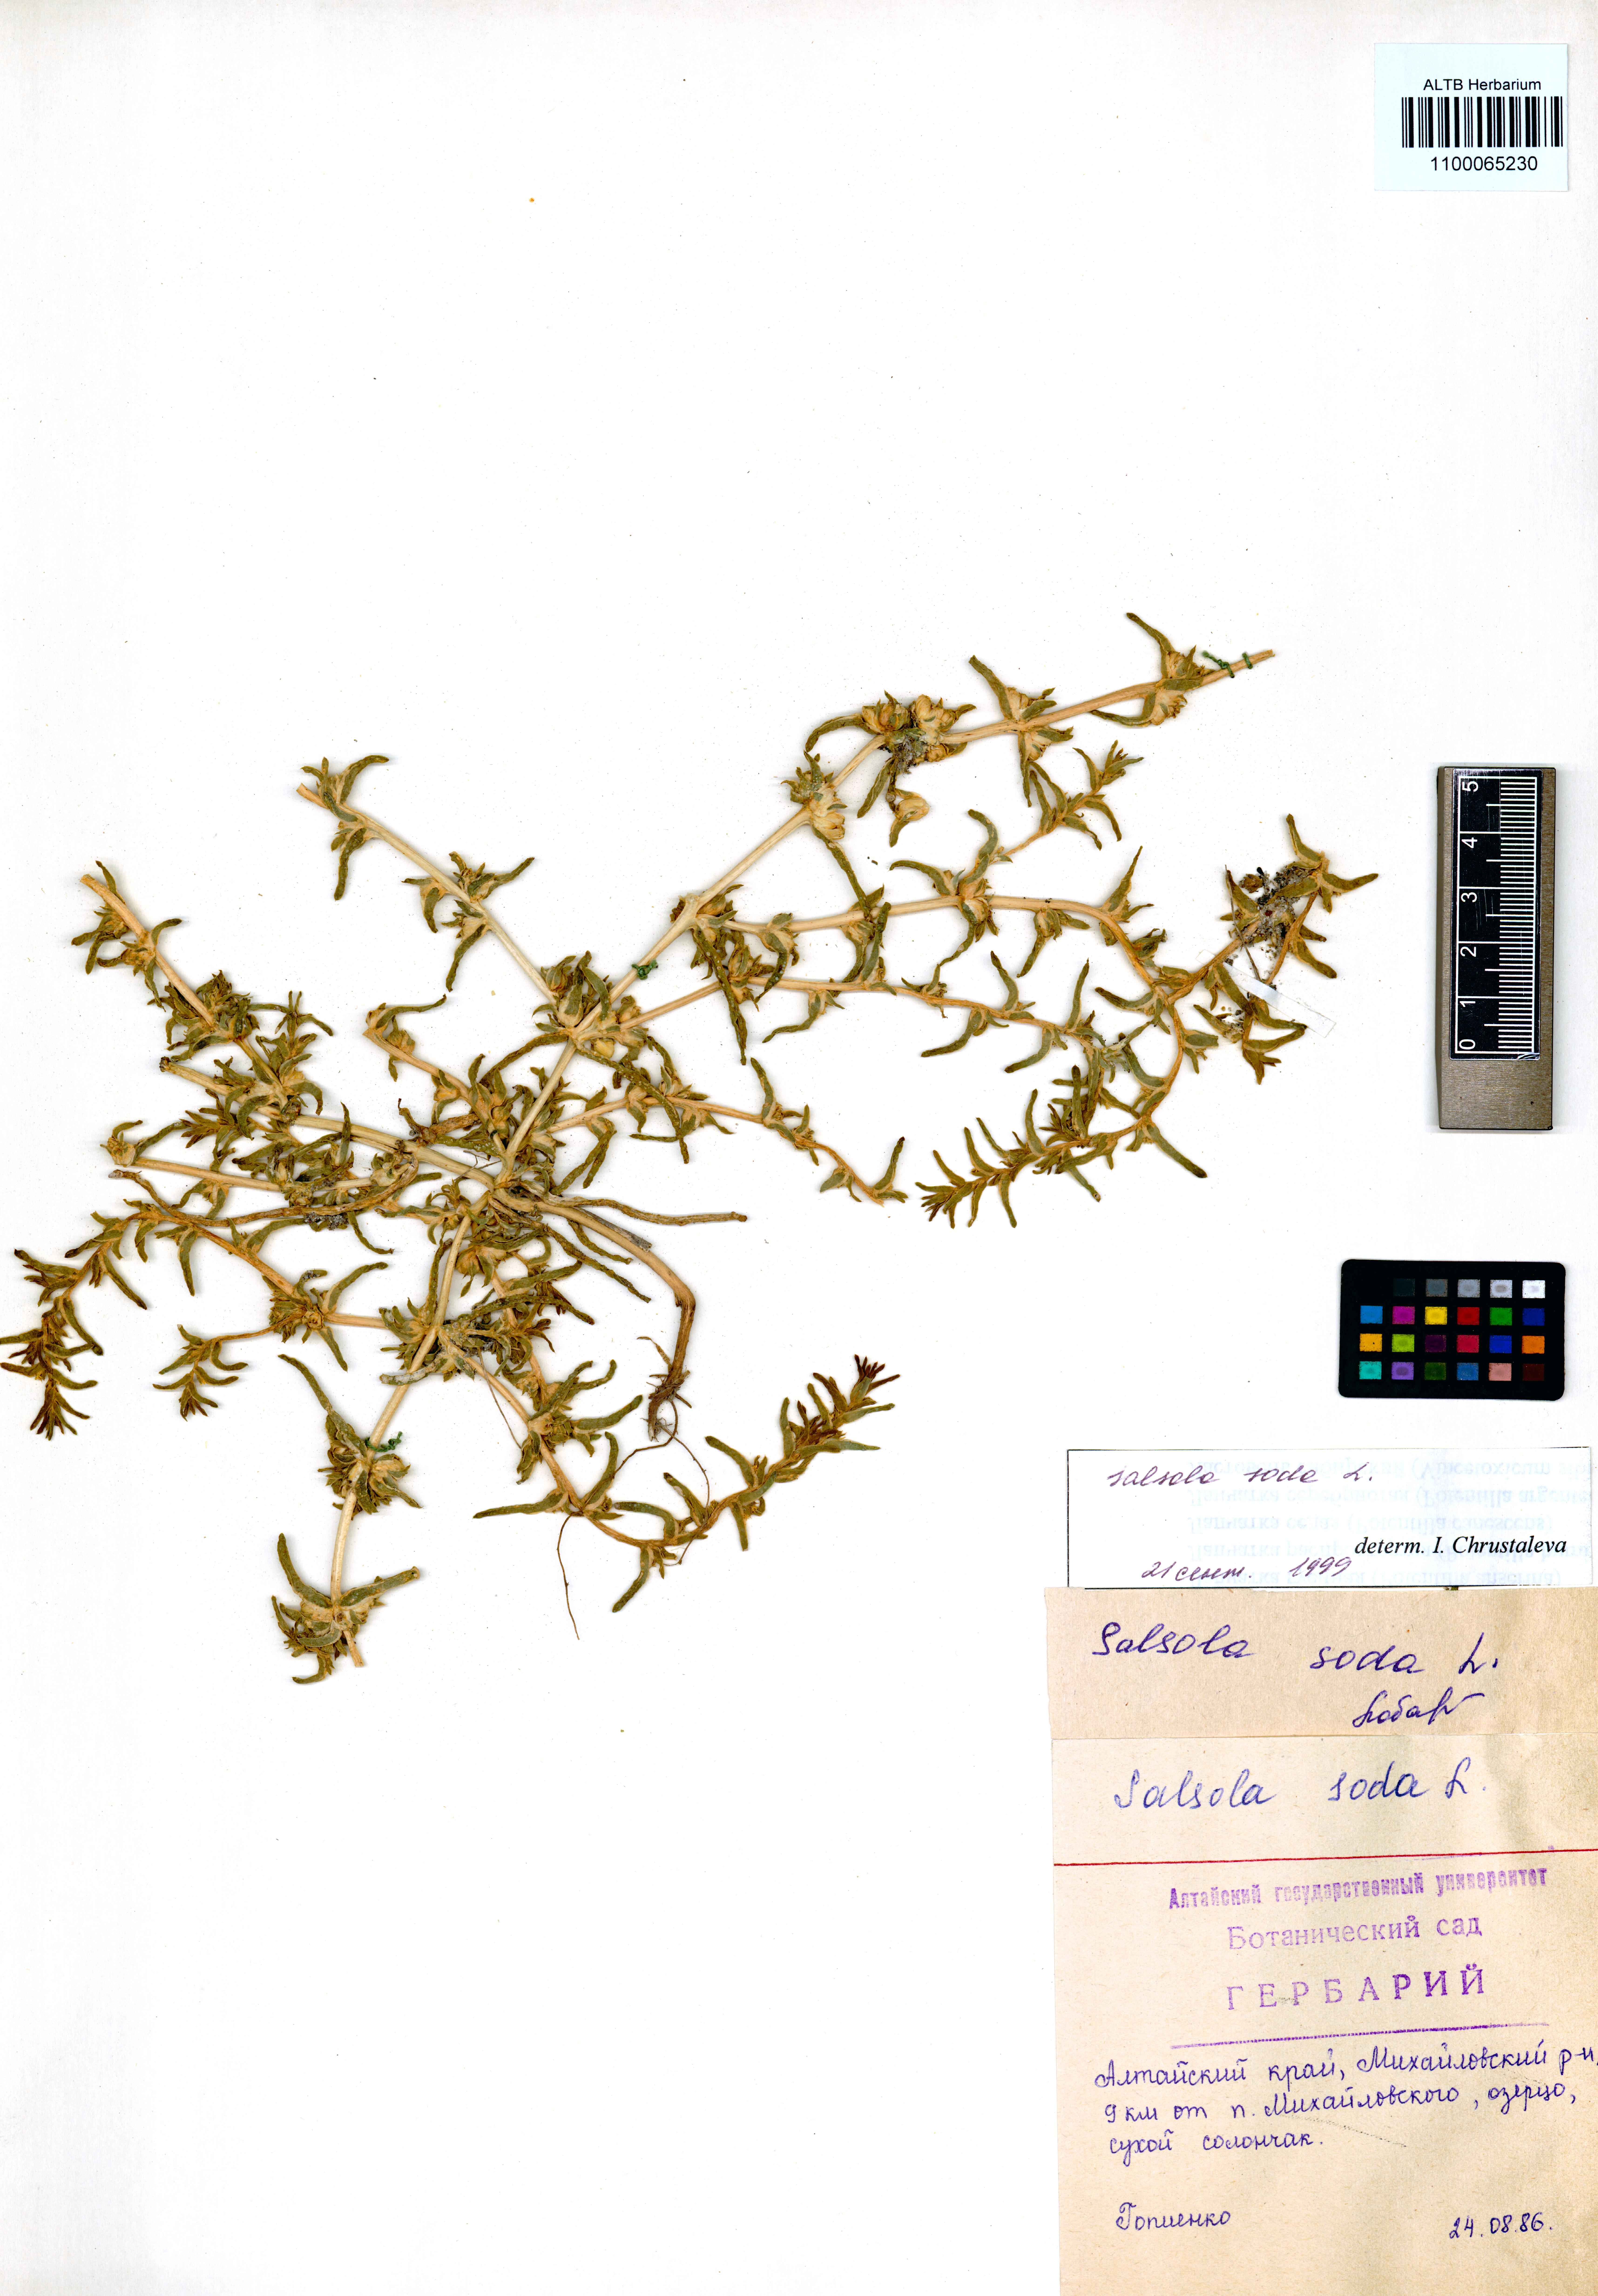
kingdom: Plantae
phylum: Tracheophyta
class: Magnoliopsida
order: Caryophyllales
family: Amaranthaceae
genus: Soda
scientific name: Soda inermis
